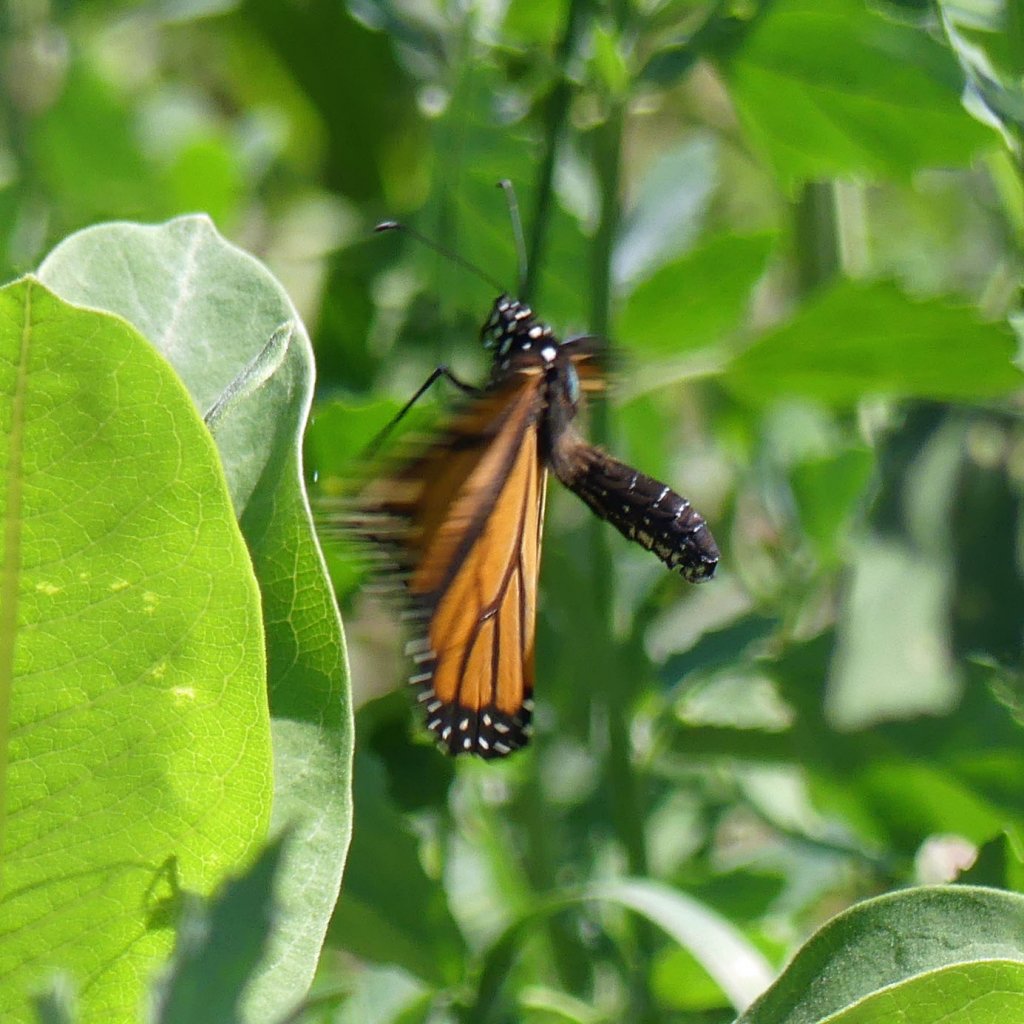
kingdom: Animalia
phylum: Arthropoda
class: Insecta
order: Lepidoptera
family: Nymphalidae
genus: Danaus
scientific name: Danaus plexippus
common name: Monarch
